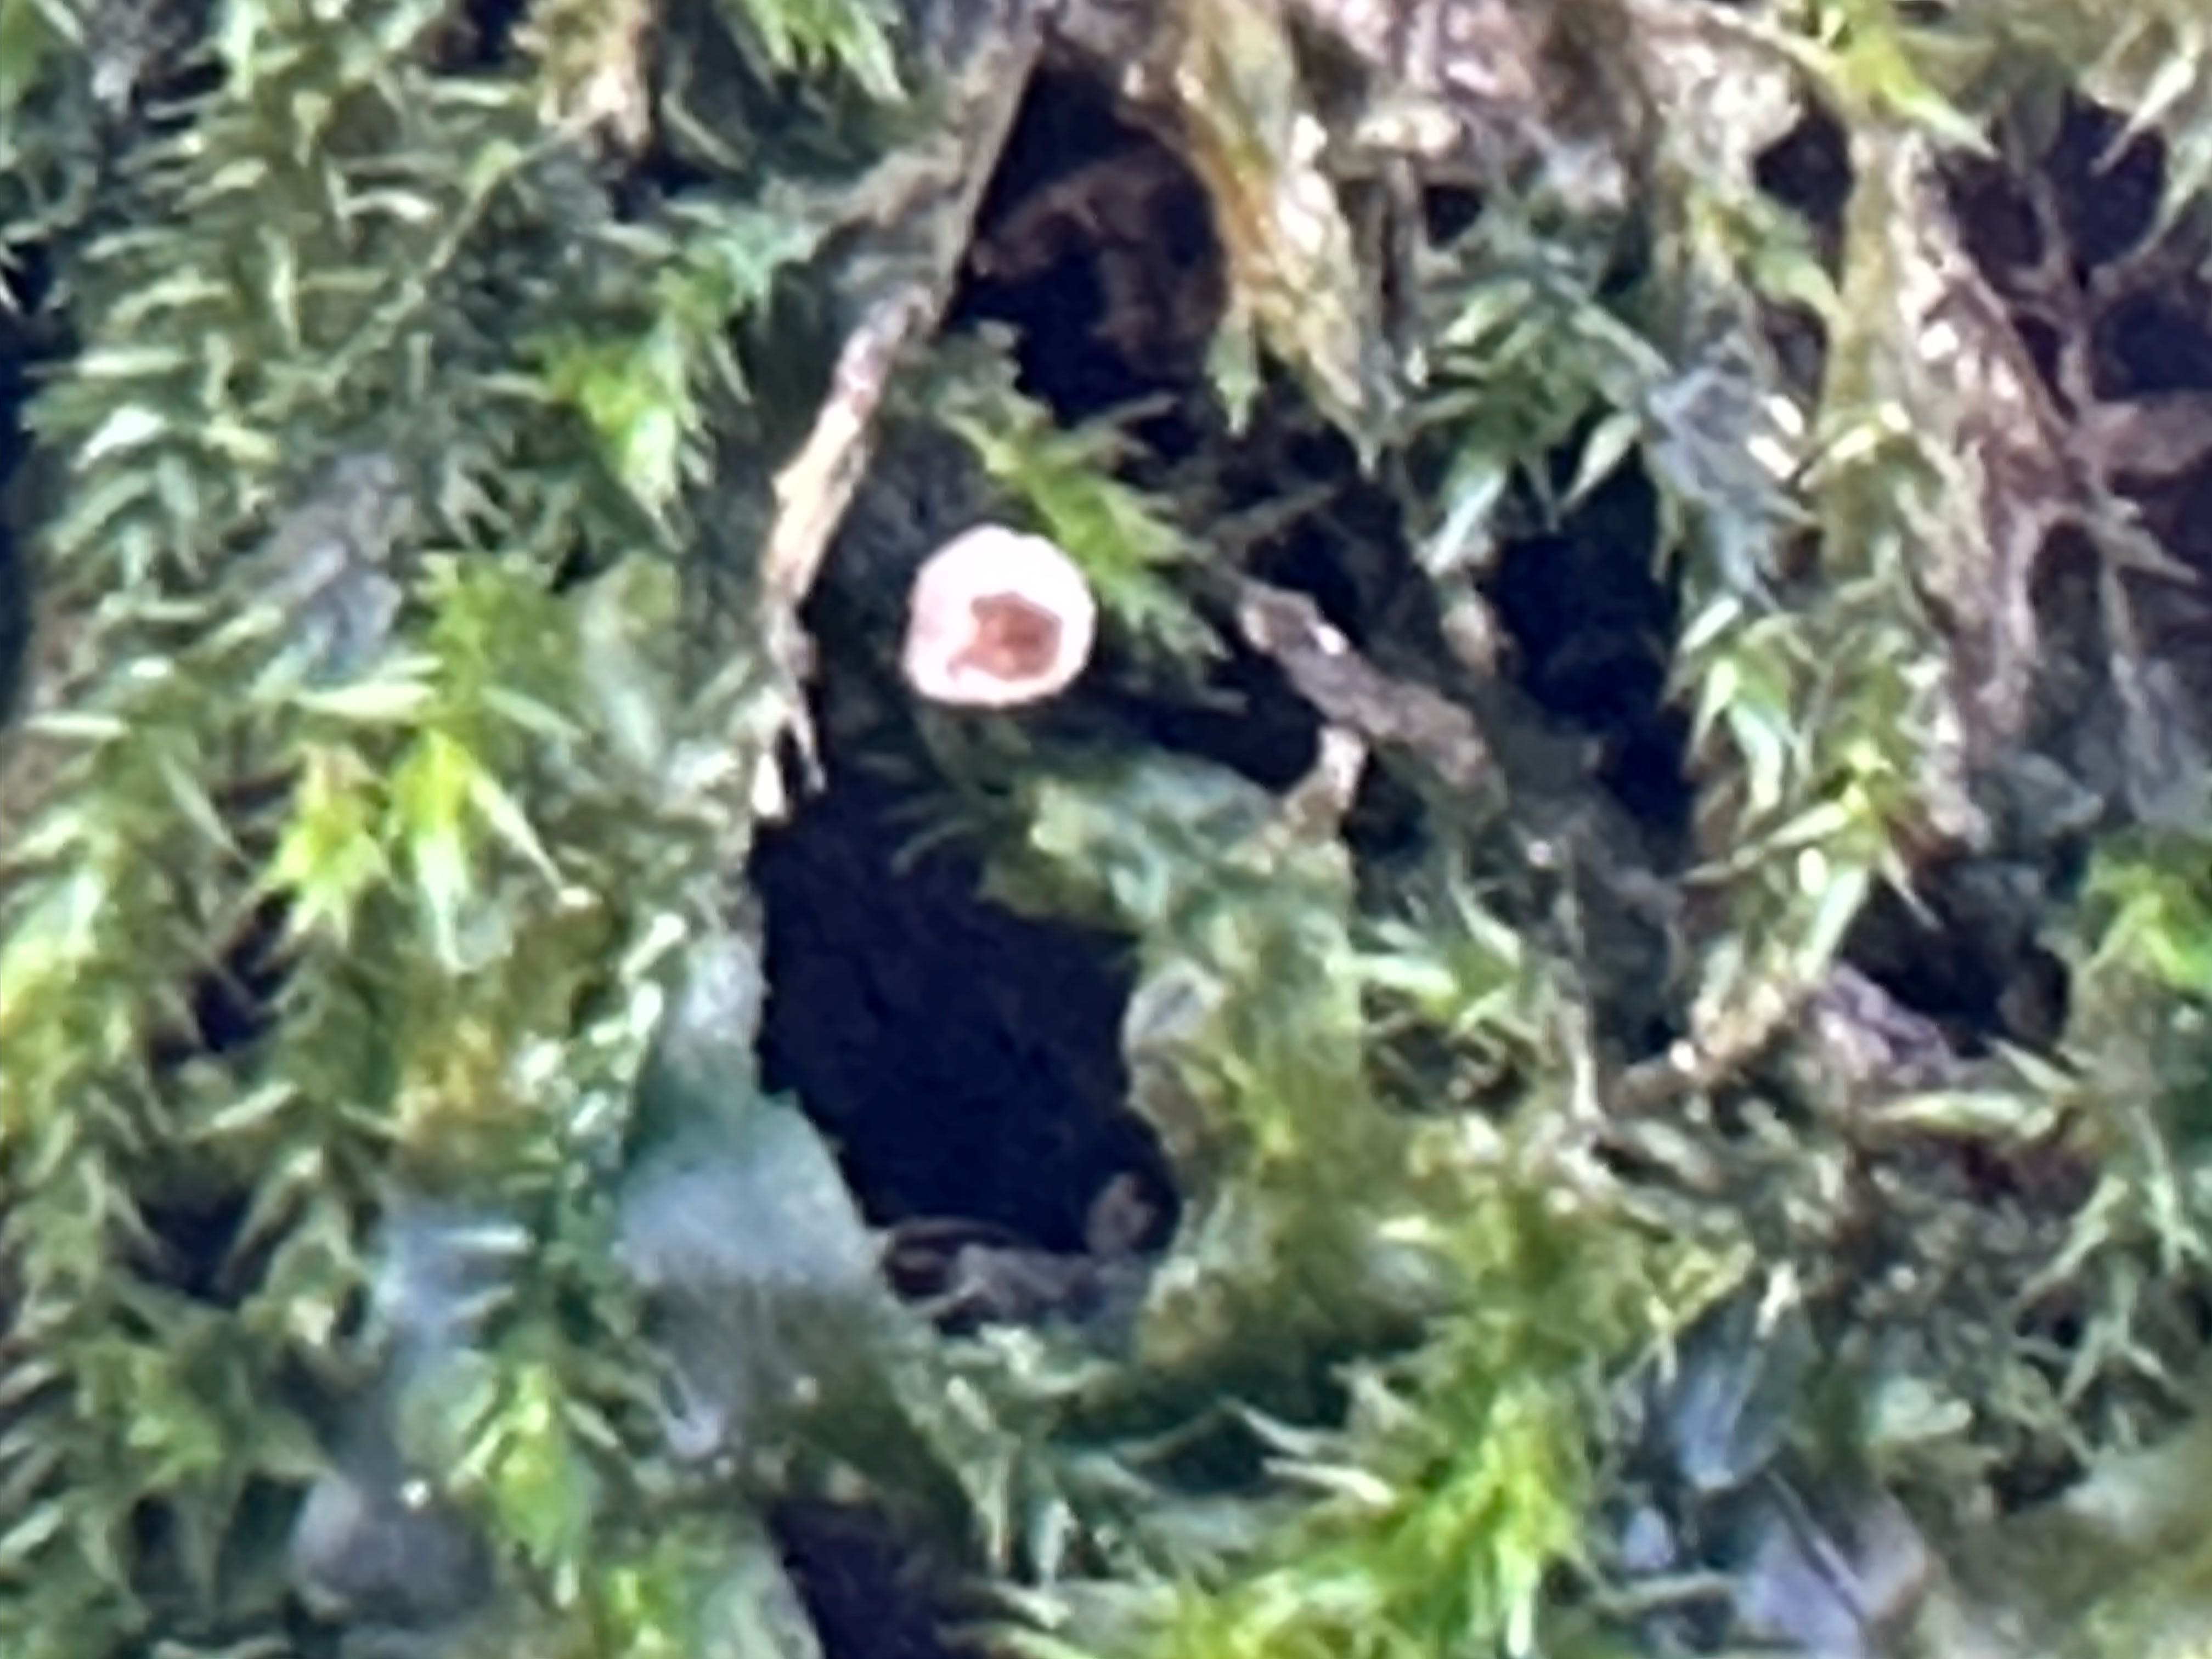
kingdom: Fungi
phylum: Basidiomycota
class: Agaricomycetes
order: Agaricales
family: Chromocyphellaceae
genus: Chromocyphella
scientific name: Chromocyphella muscicola
